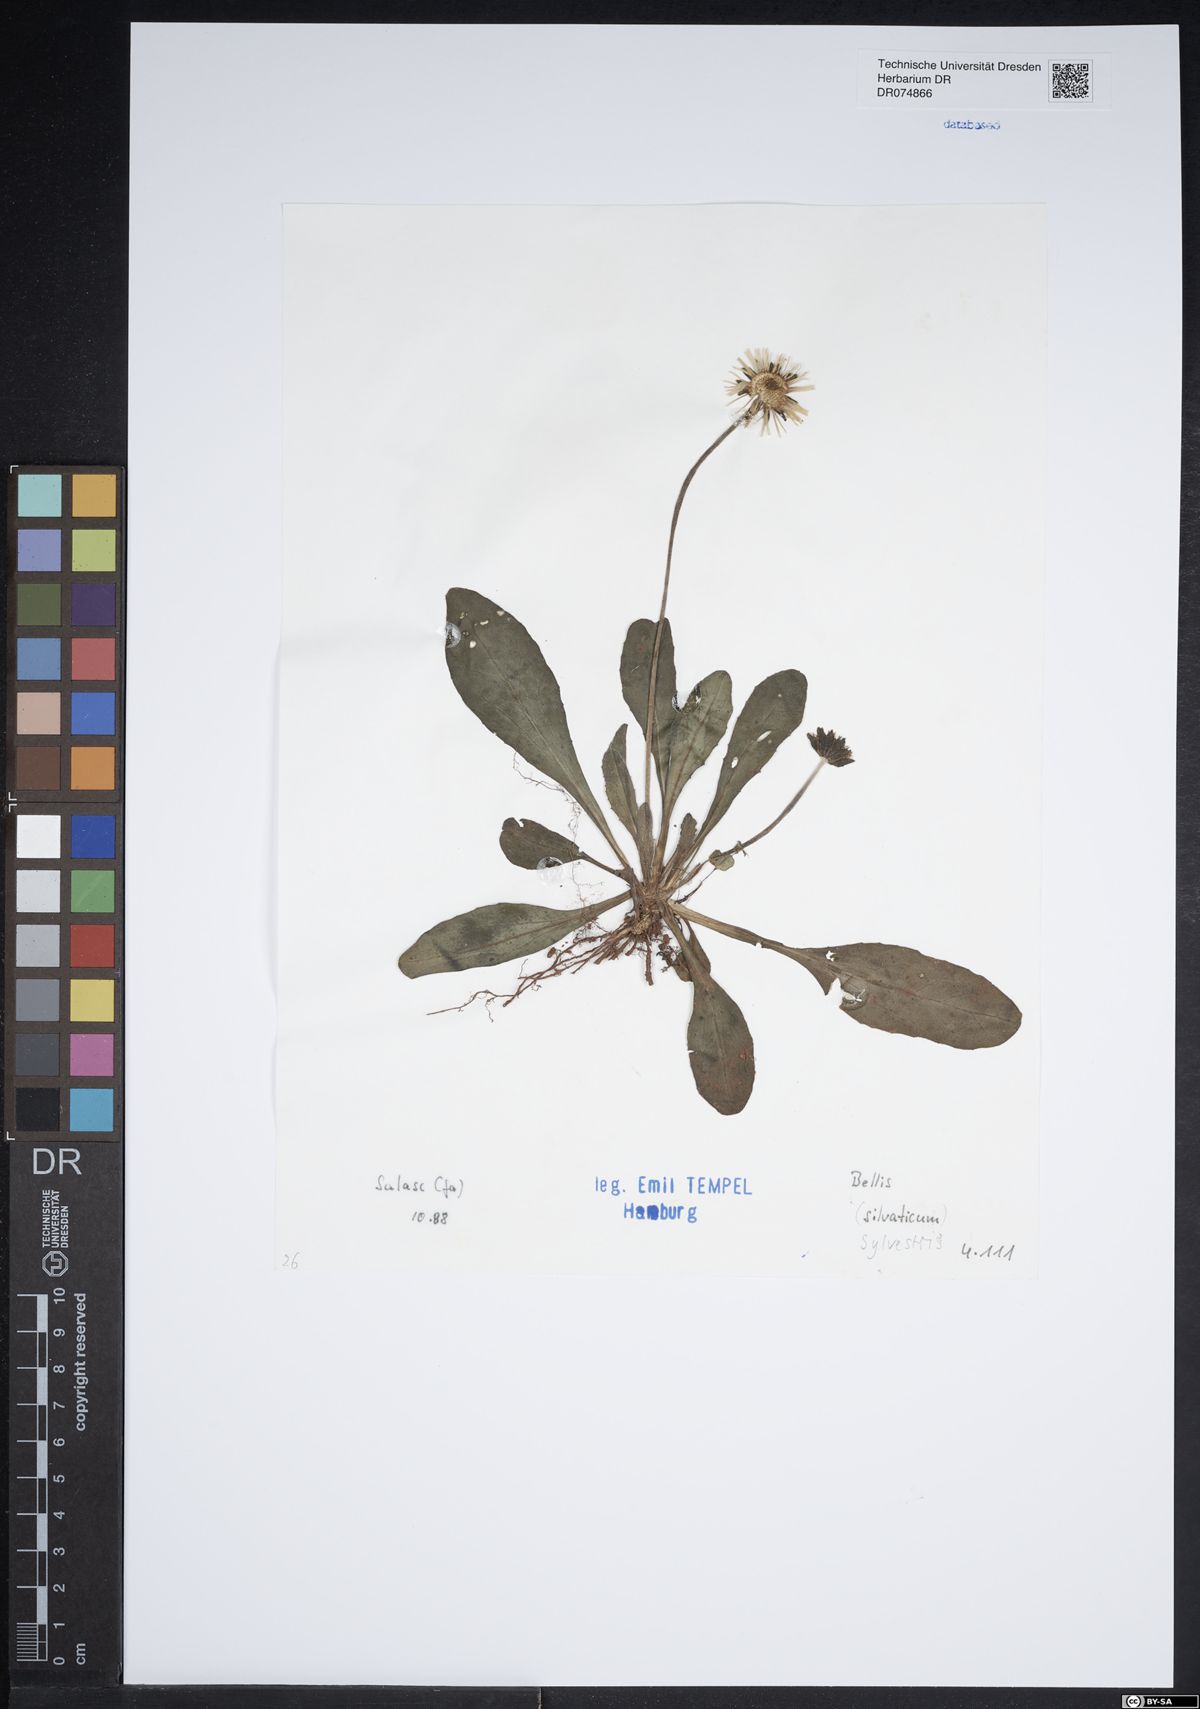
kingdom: Plantae
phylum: Tracheophyta
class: Magnoliopsida
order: Asterales
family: Asteraceae
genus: Bellis
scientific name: Bellis sylvestris
